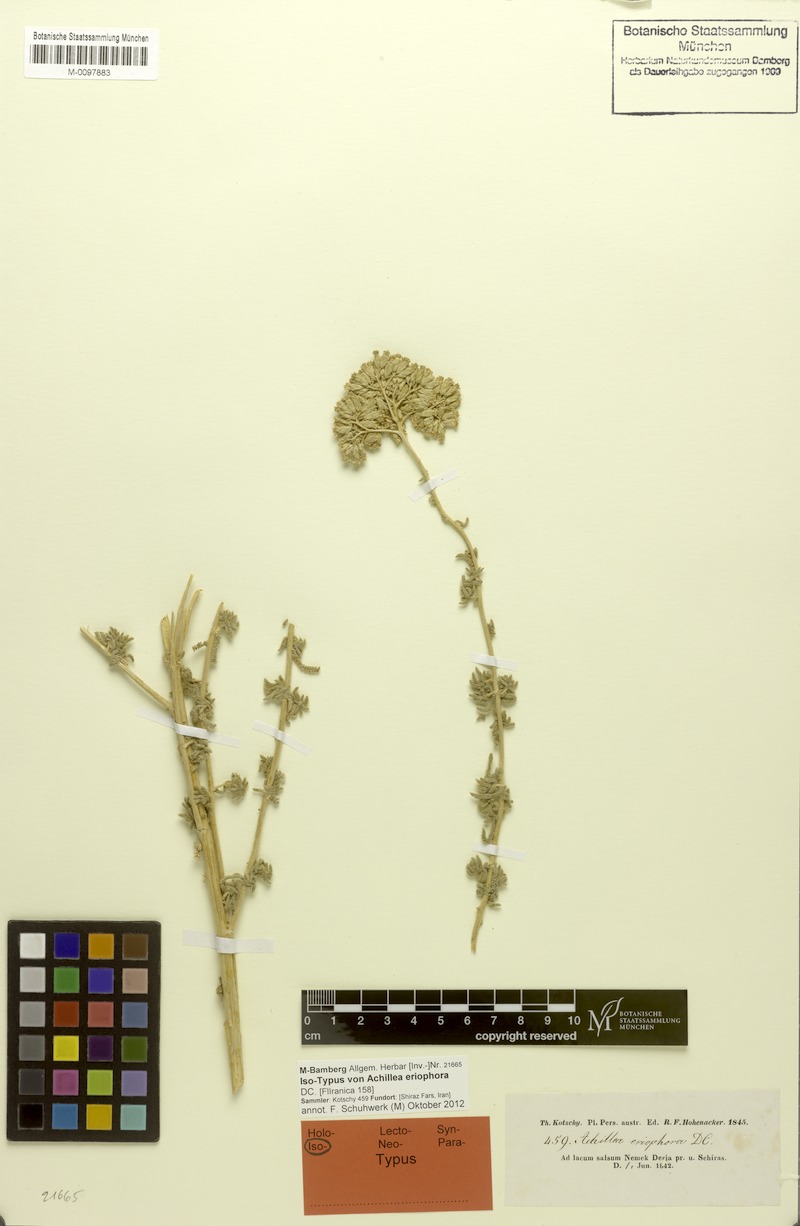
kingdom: Plantae
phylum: Tracheophyta
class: Magnoliopsida
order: Asterales
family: Asteraceae
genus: Achillea
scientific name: Achillea eriophora
